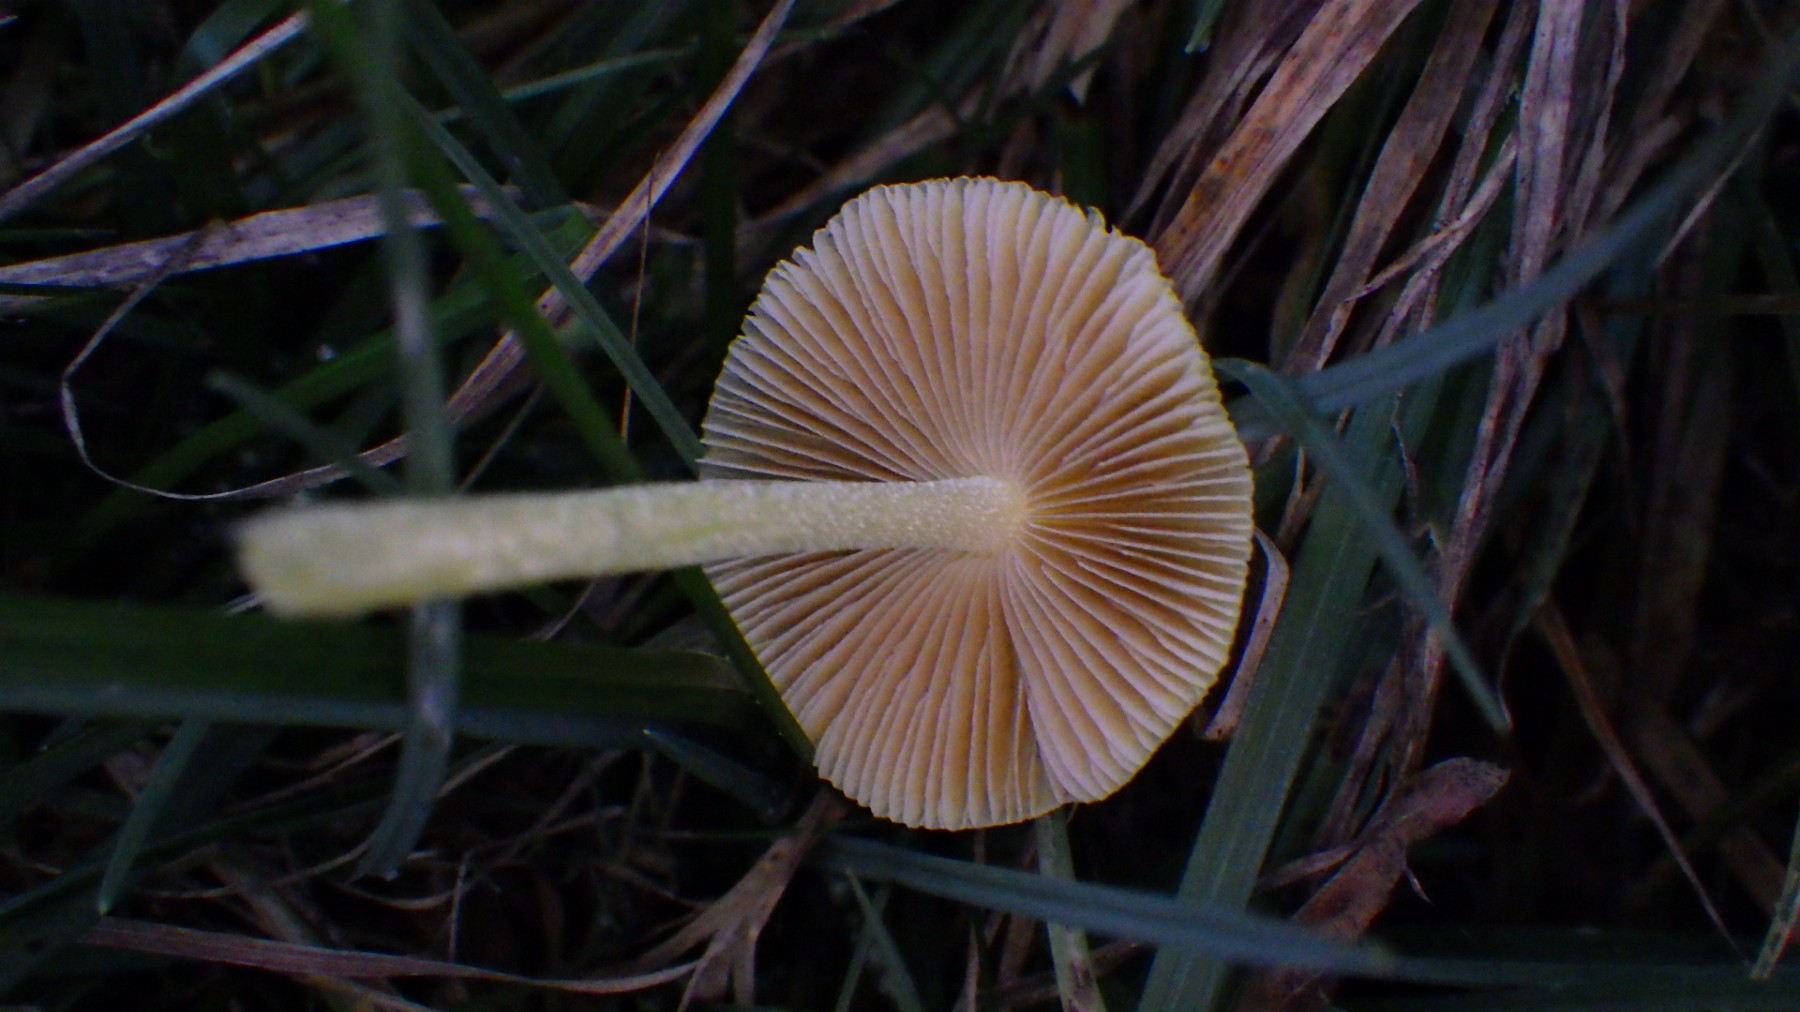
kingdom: Fungi
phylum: Basidiomycota
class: Agaricomycetes
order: Agaricales
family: Bolbitiaceae
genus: Bolbitius
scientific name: Bolbitius titubans
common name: almindelig gulhat
